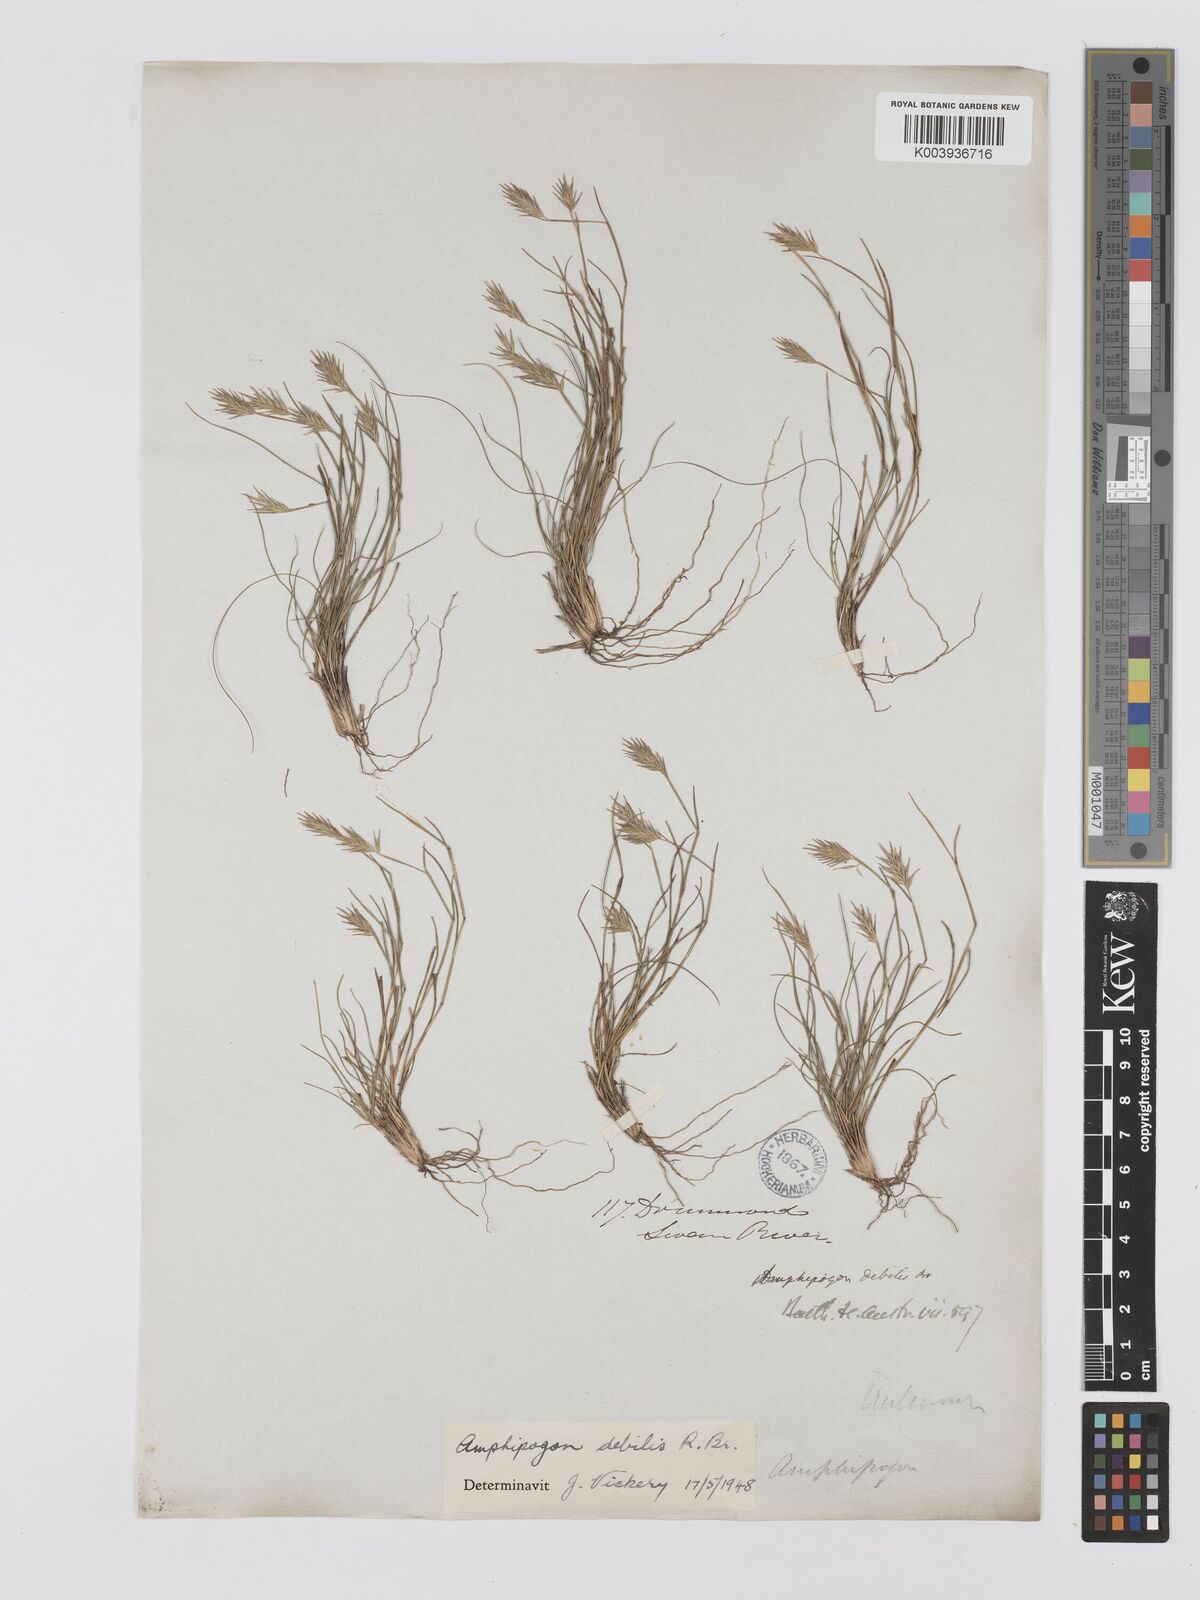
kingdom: Plantae
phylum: Tracheophyta
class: Liliopsida
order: Poales
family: Poaceae
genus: Amphipogon
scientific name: Amphipogon debilis
